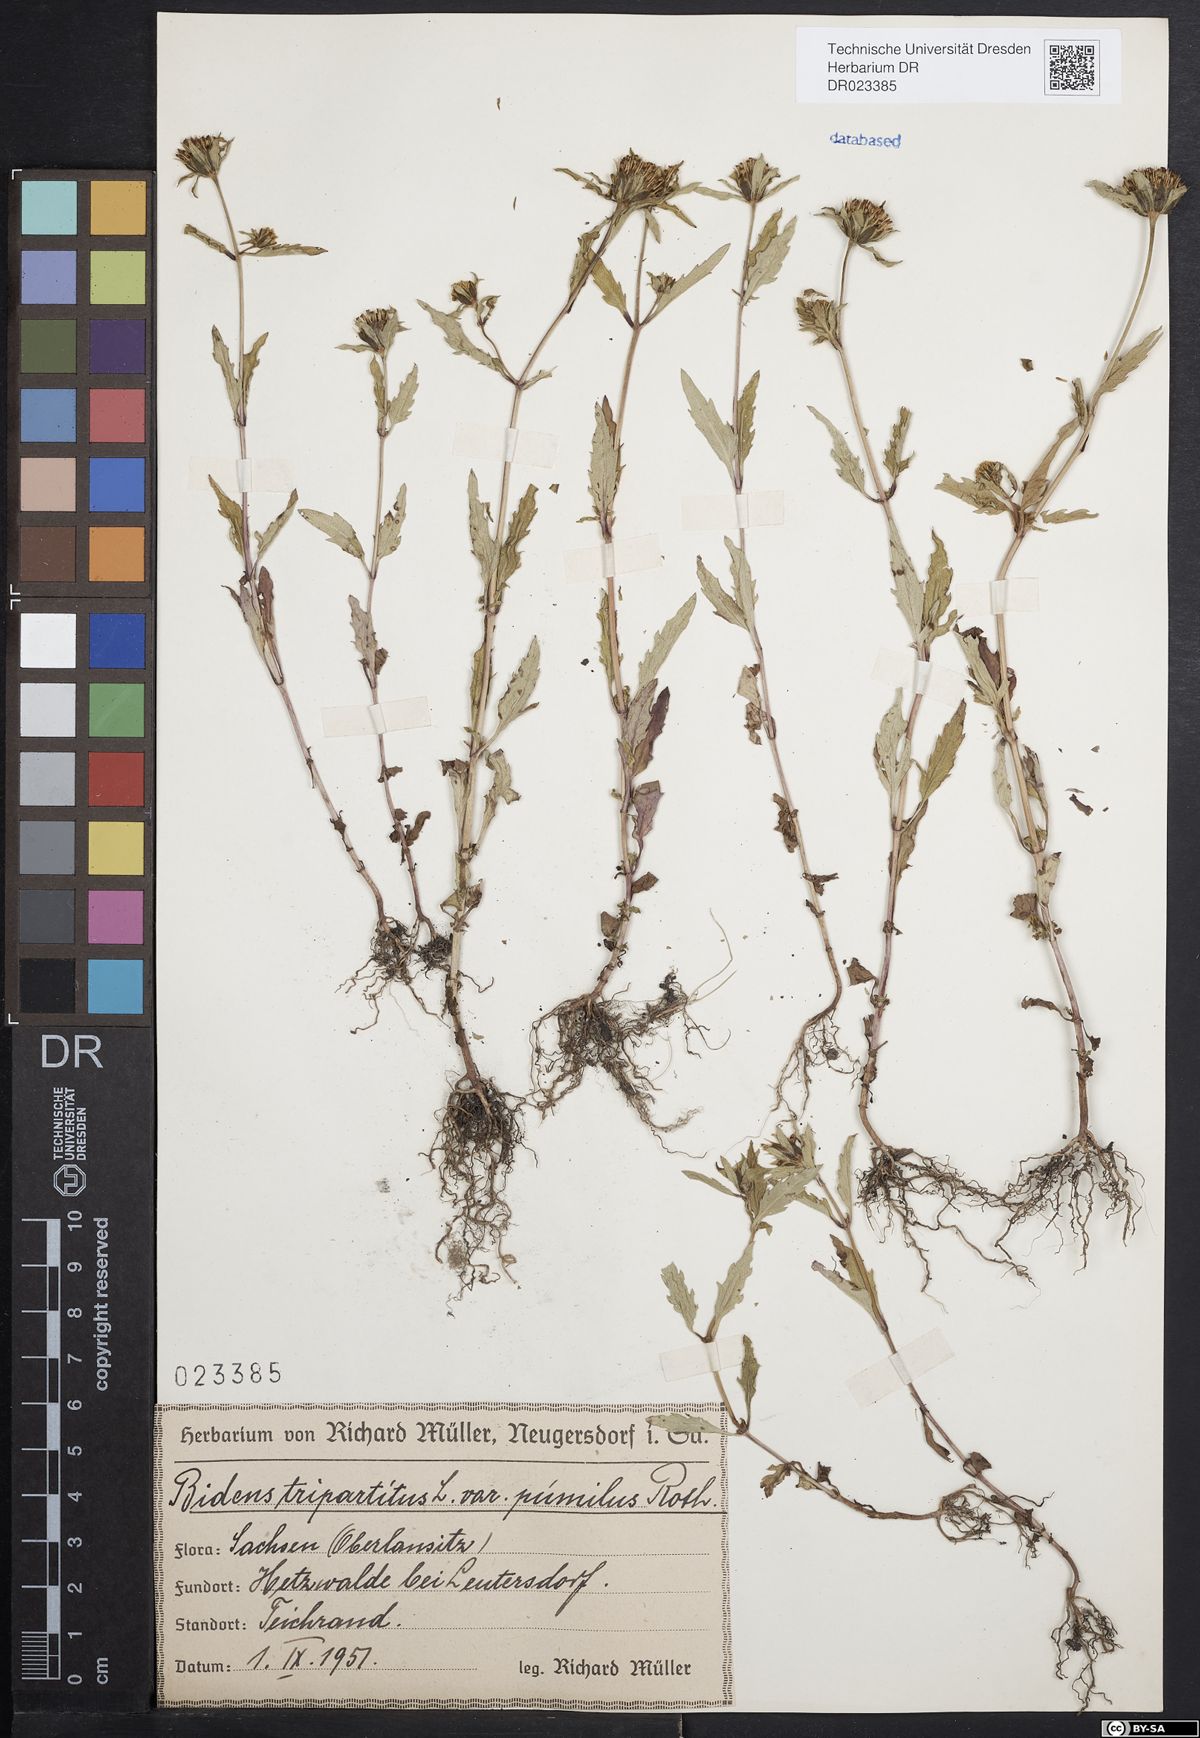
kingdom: Plantae
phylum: Tracheophyta
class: Magnoliopsida
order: Asterales
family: Asteraceae
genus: Bidens
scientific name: Bidens tripartita
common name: Trifid bur-marigold
